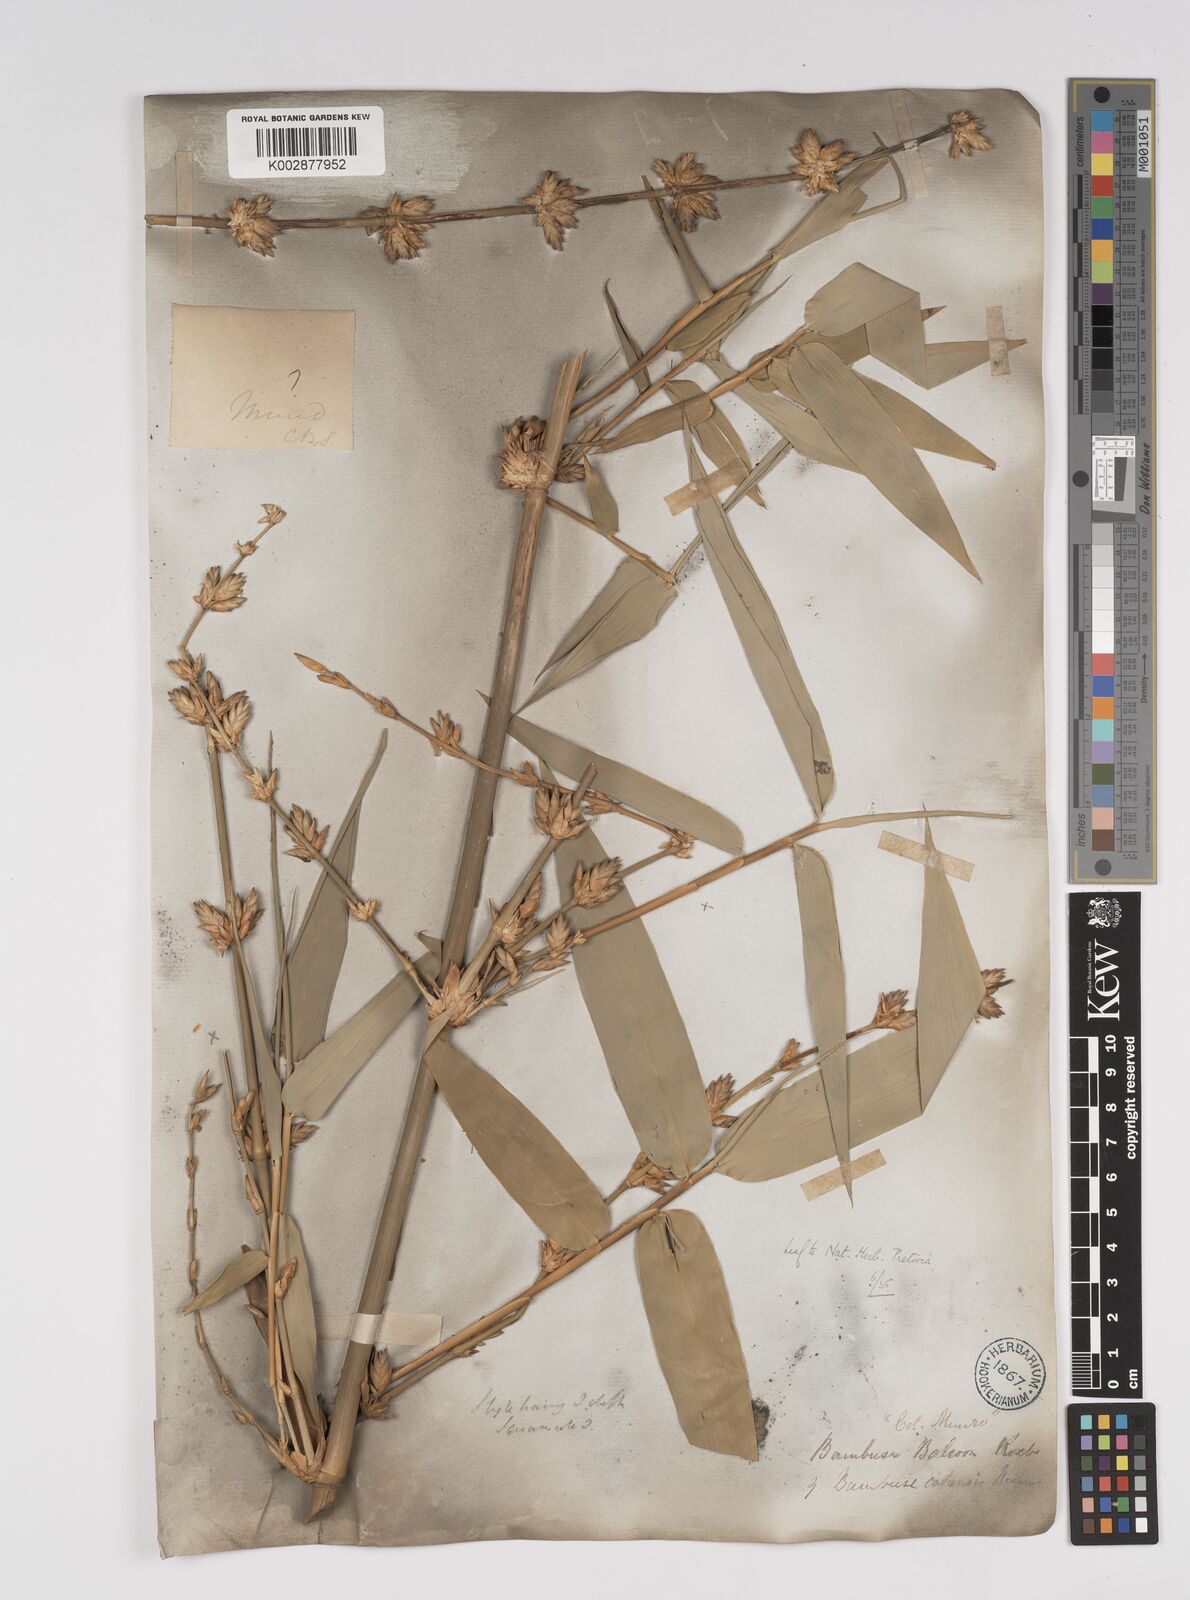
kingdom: Plantae
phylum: Tracheophyta
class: Liliopsida
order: Poales
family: Poaceae
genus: Bambusa
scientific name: Bambusa balcooa
